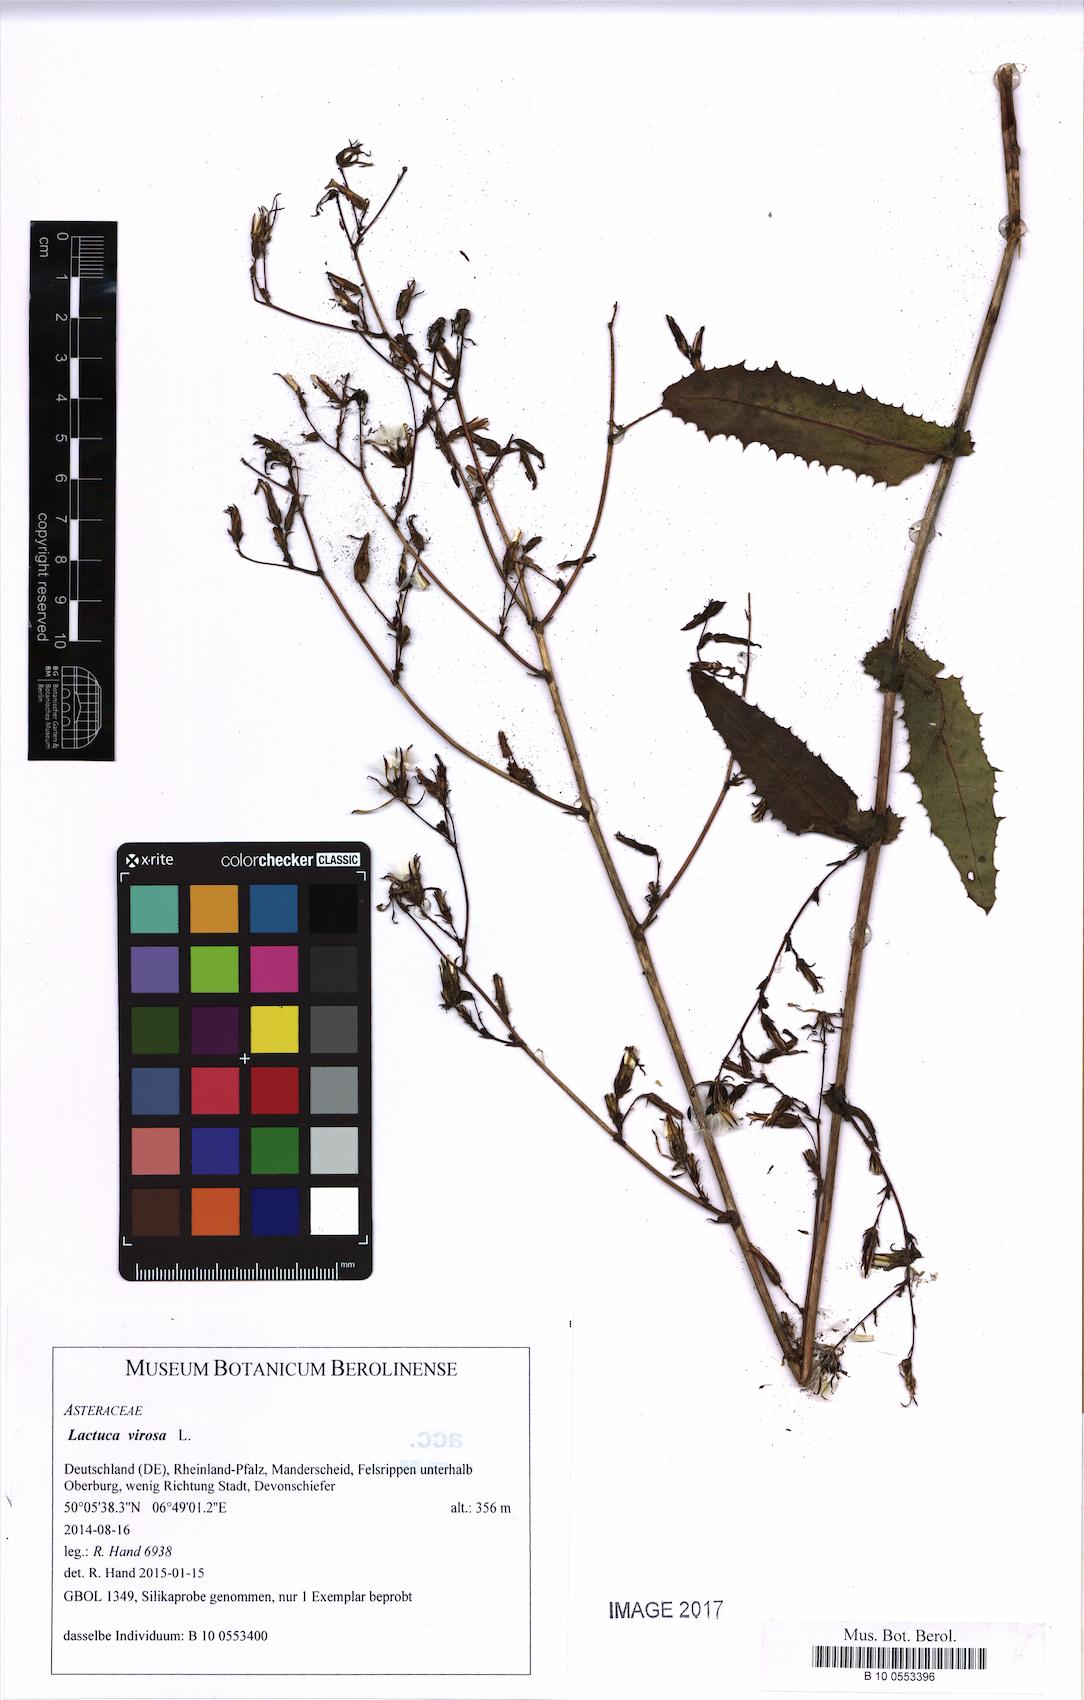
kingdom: Plantae
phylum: Tracheophyta
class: Magnoliopsida
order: Asterales
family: Asteraceae
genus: Lactuca
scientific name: Lactuca virosa
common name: Great lettuce
